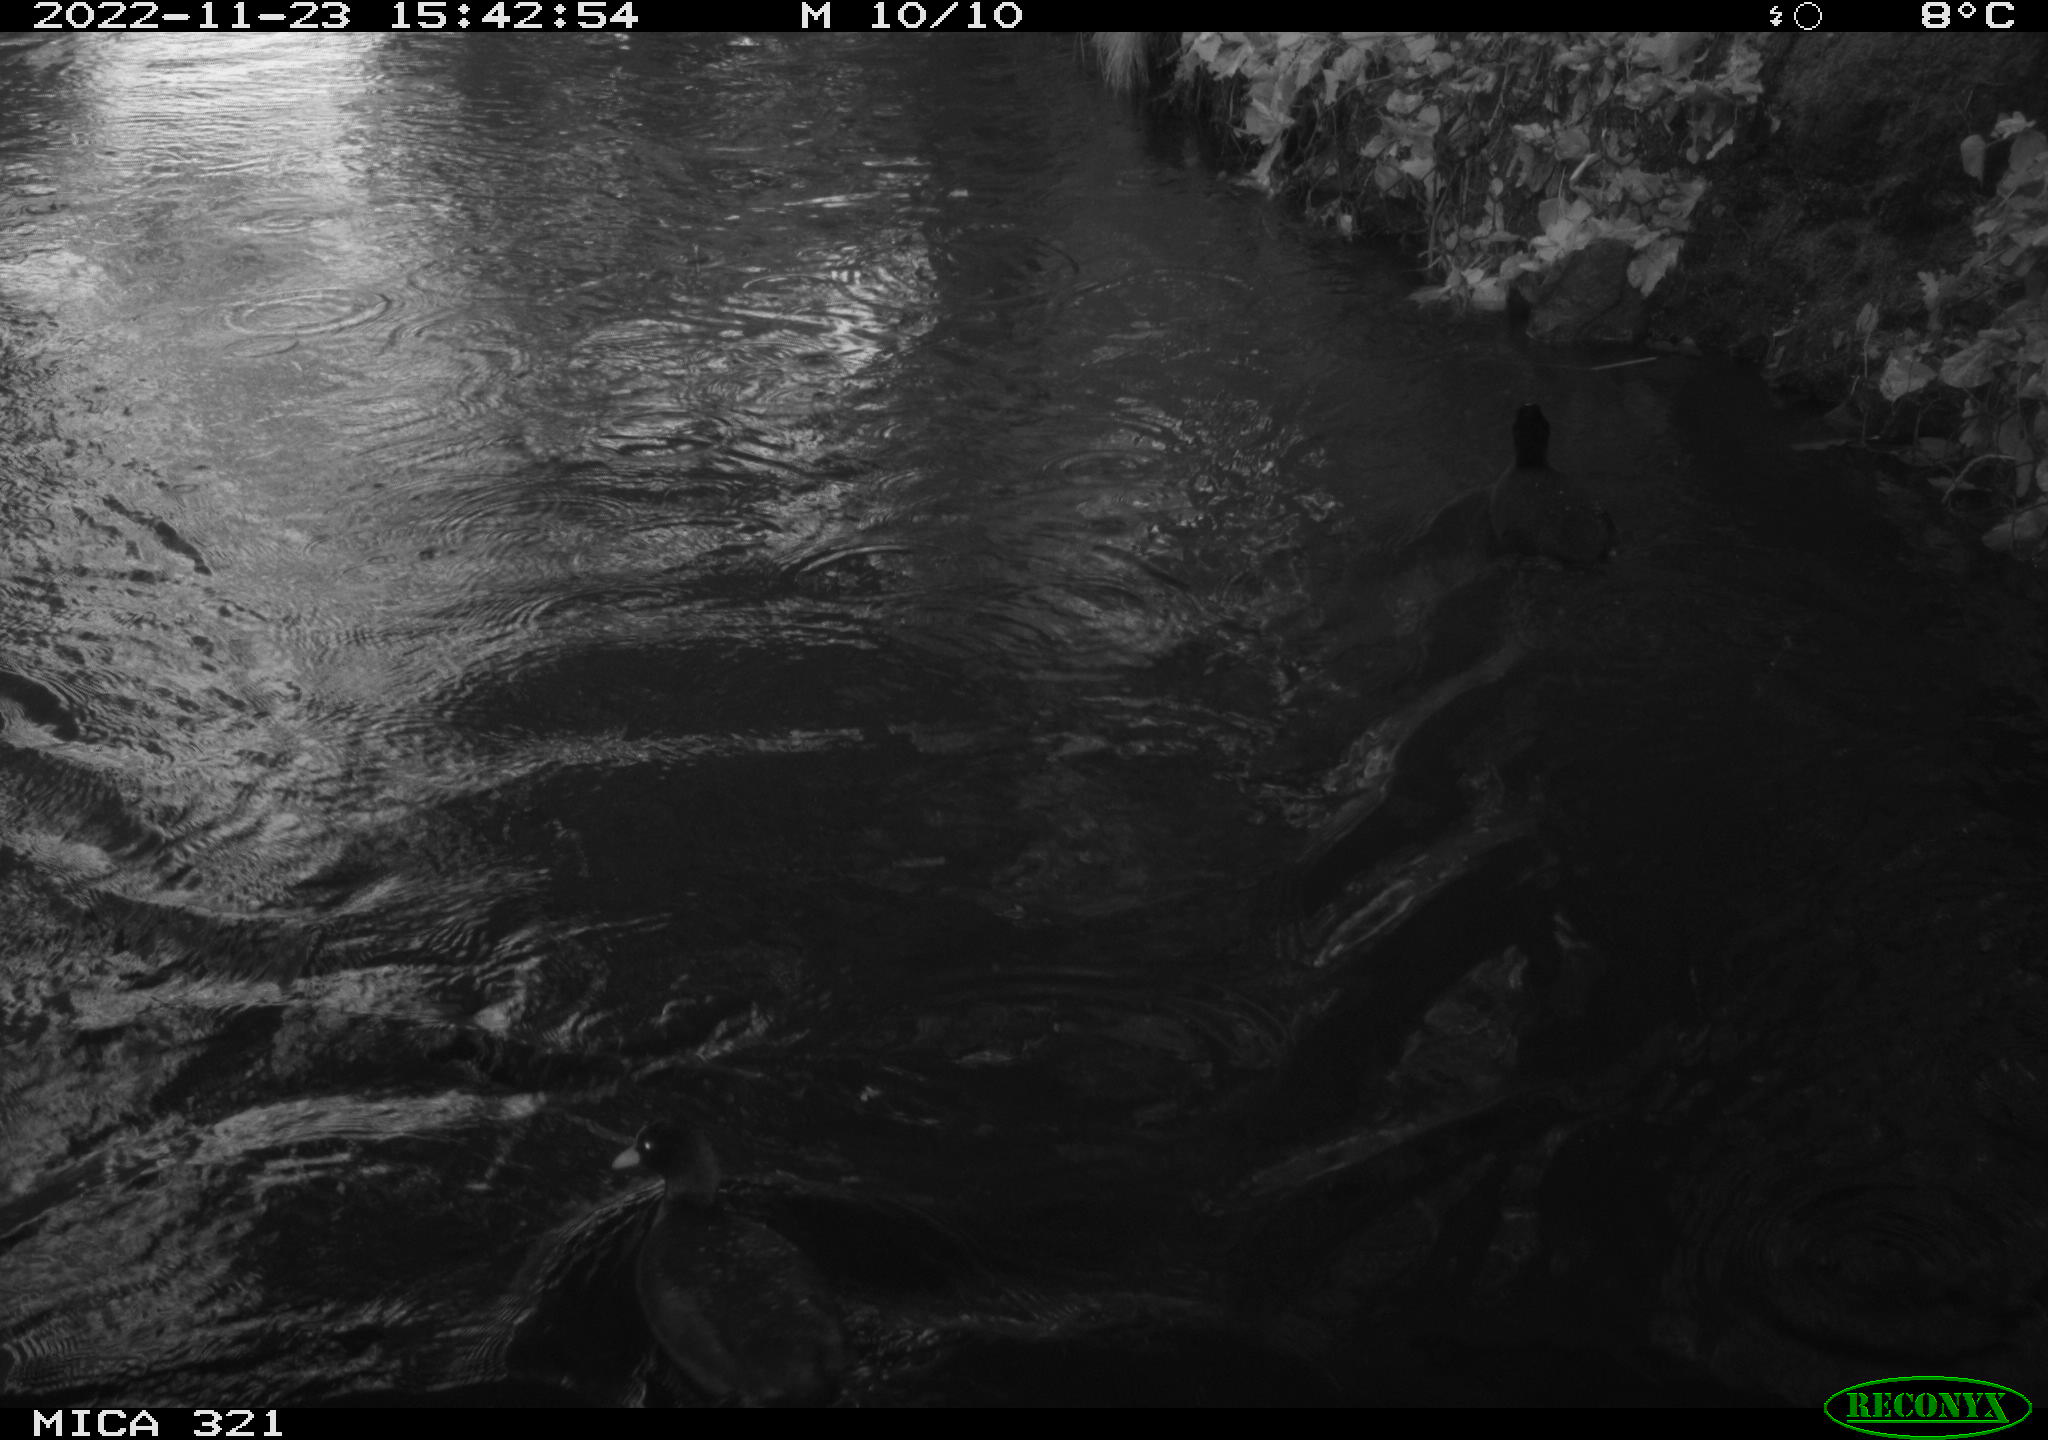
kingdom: Animalia
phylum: Chordata
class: Aves
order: Anseriformes
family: Anatidae
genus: Anas
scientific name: Anas
